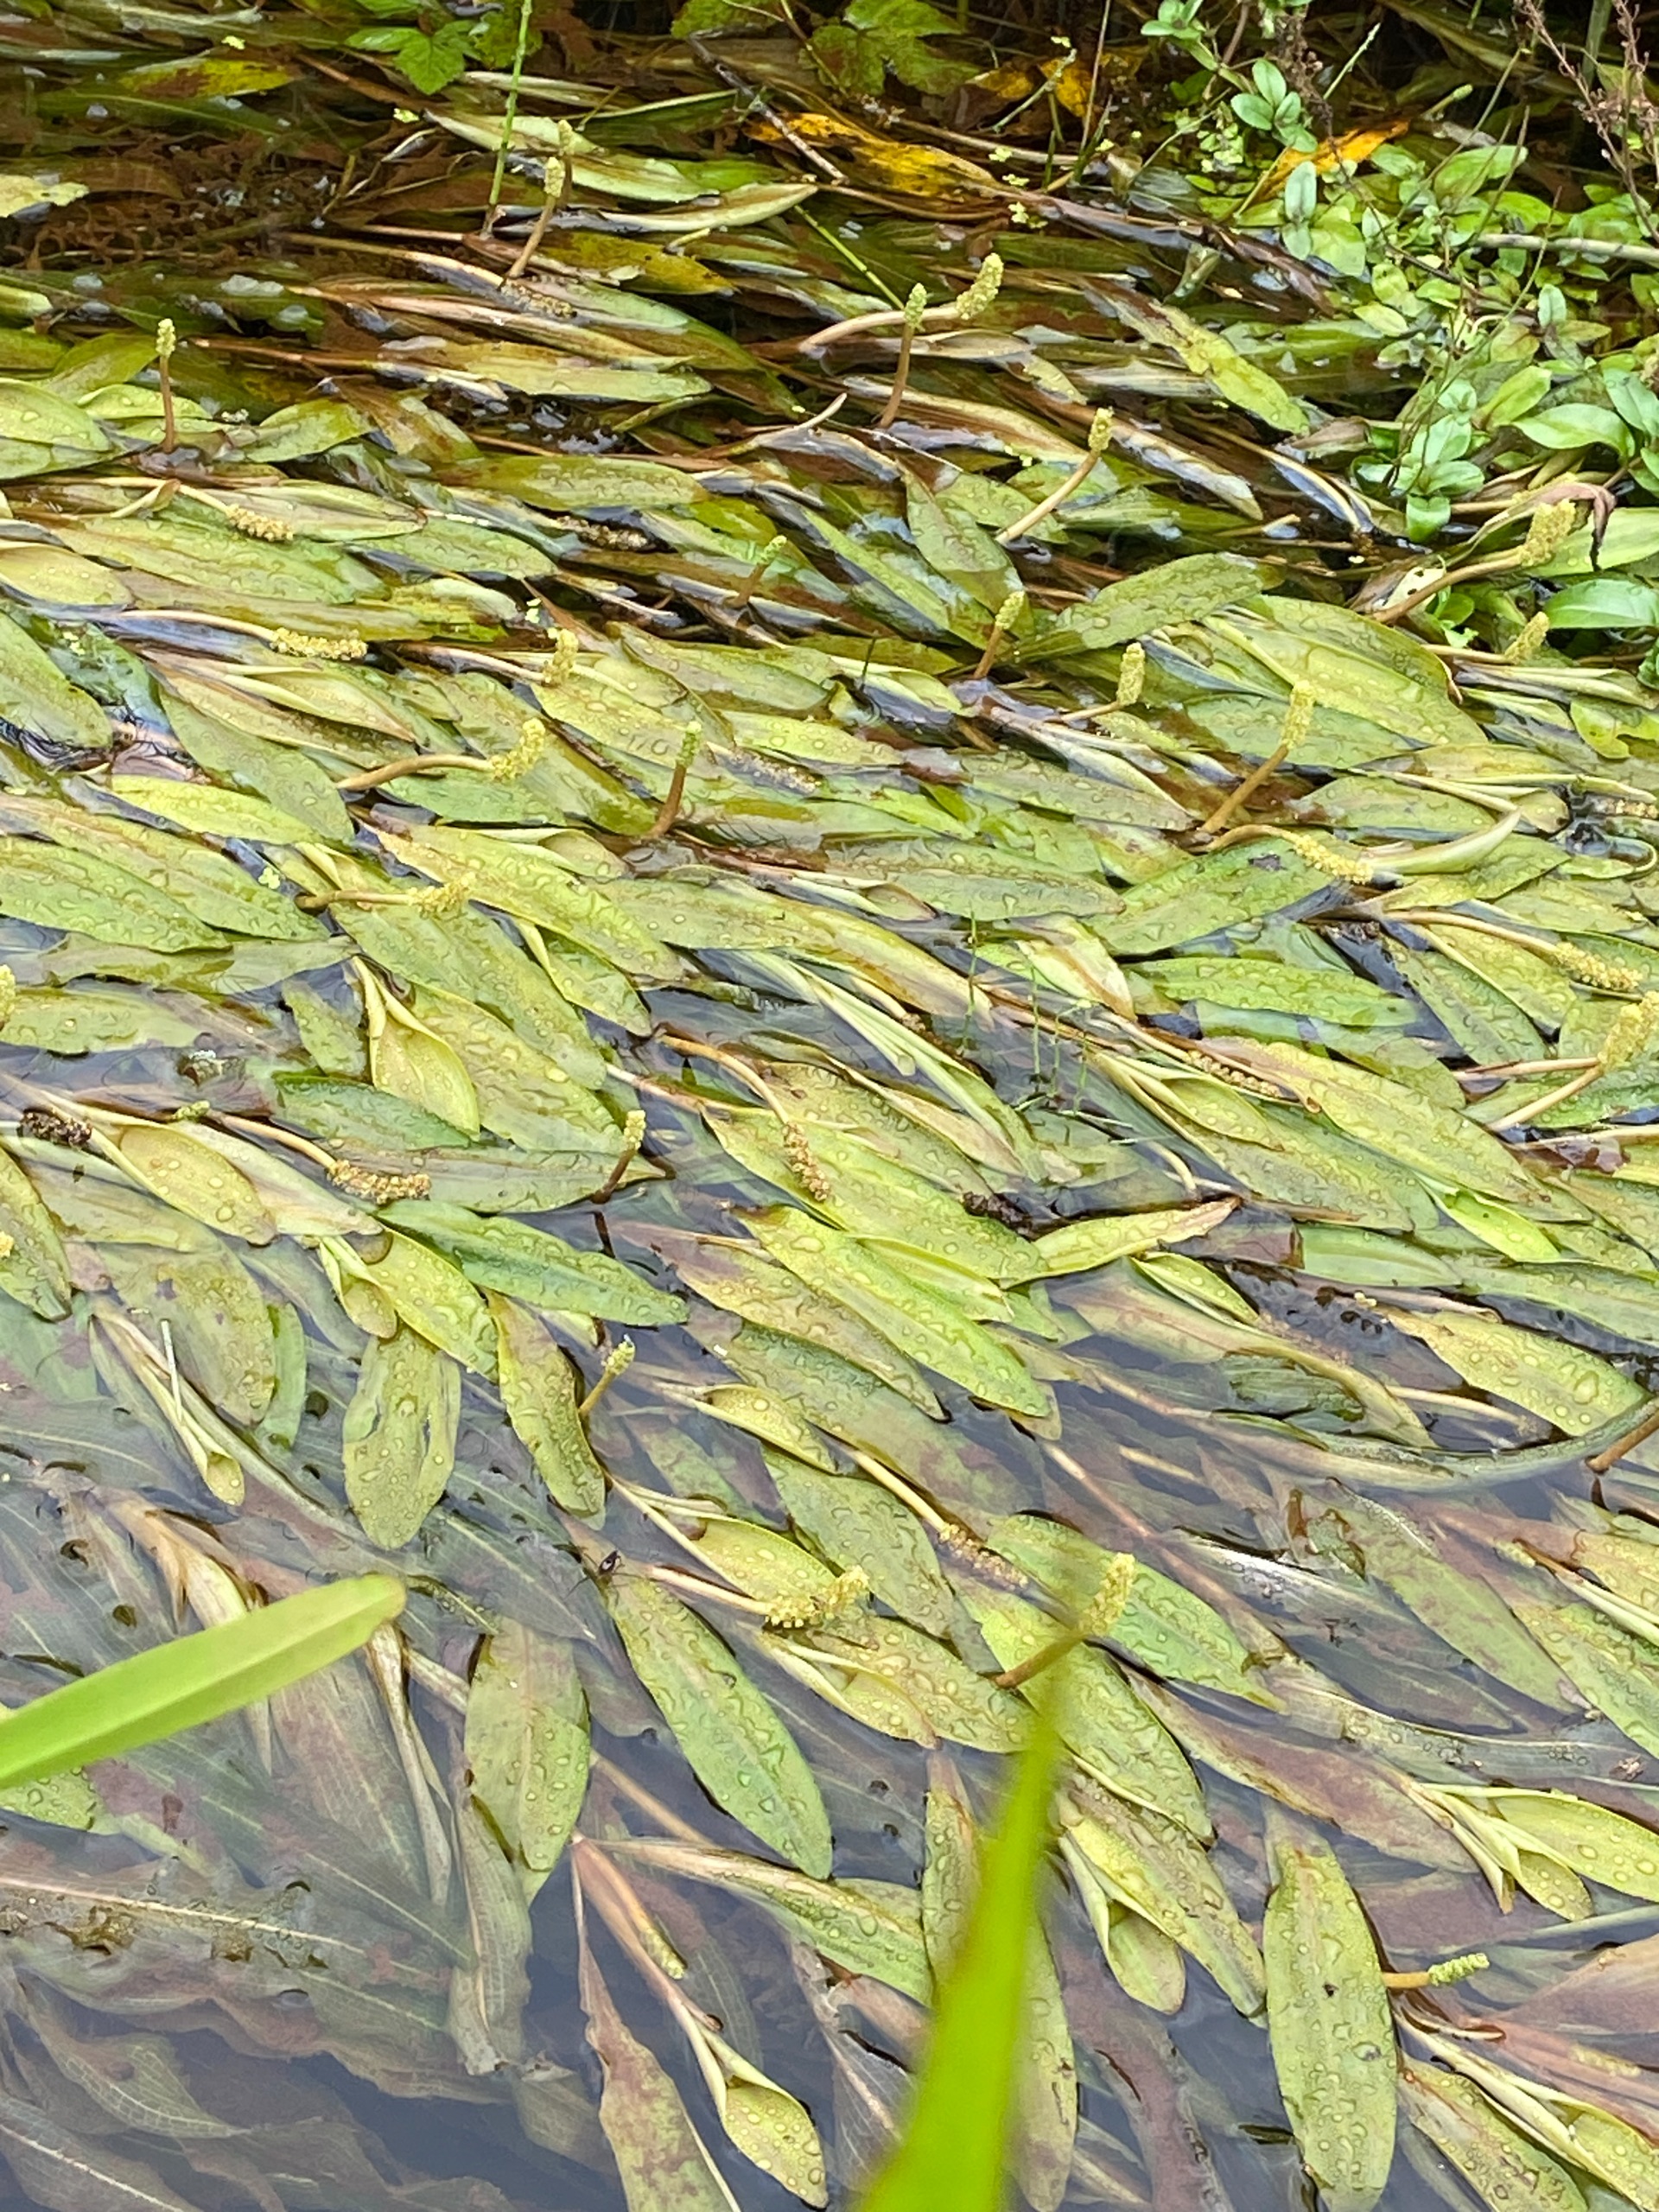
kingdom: Plantae
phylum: Tracheophyta
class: Liliopsida
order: Alismatales
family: Potamogetonaceae
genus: Potamogeton
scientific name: Potamogeton alpinus
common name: Rust-vandaks
